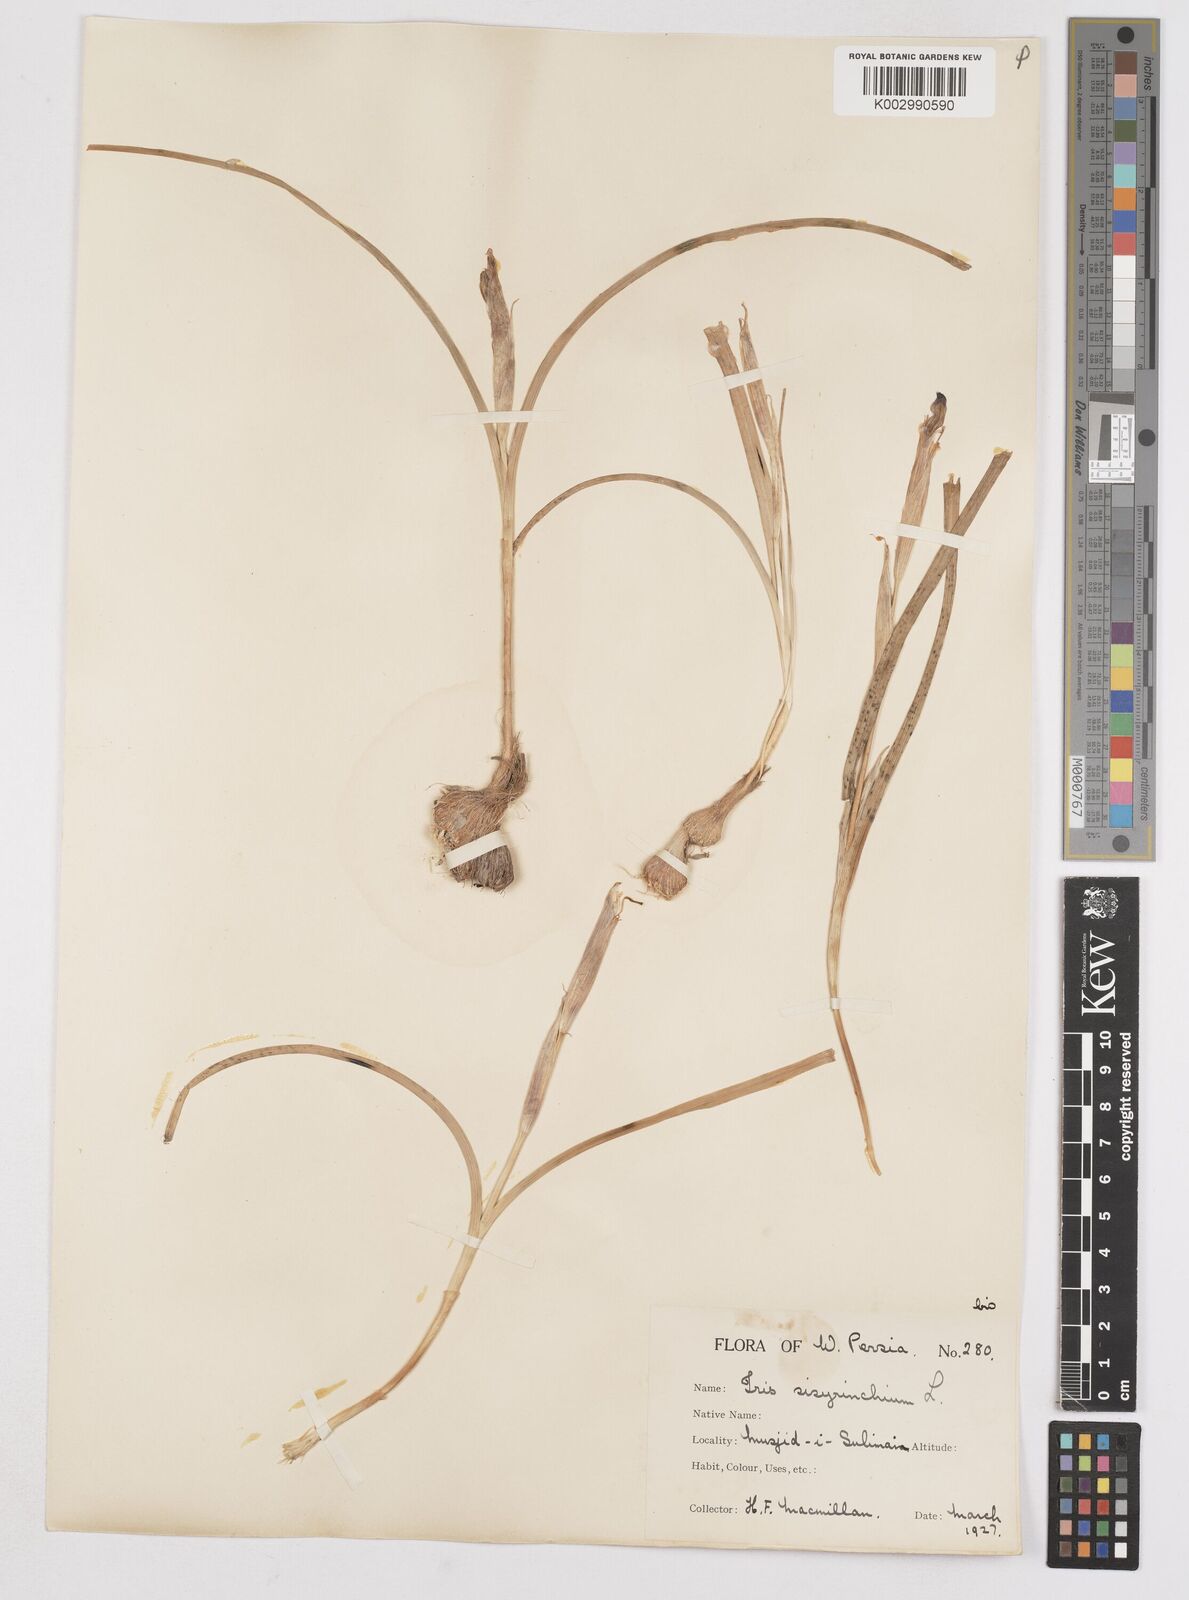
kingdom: Plantae
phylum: Tracheophyta
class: Liliopsida
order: Asparagales
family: Iridaceae
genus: Moraea
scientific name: Moraea sisyrinchium
